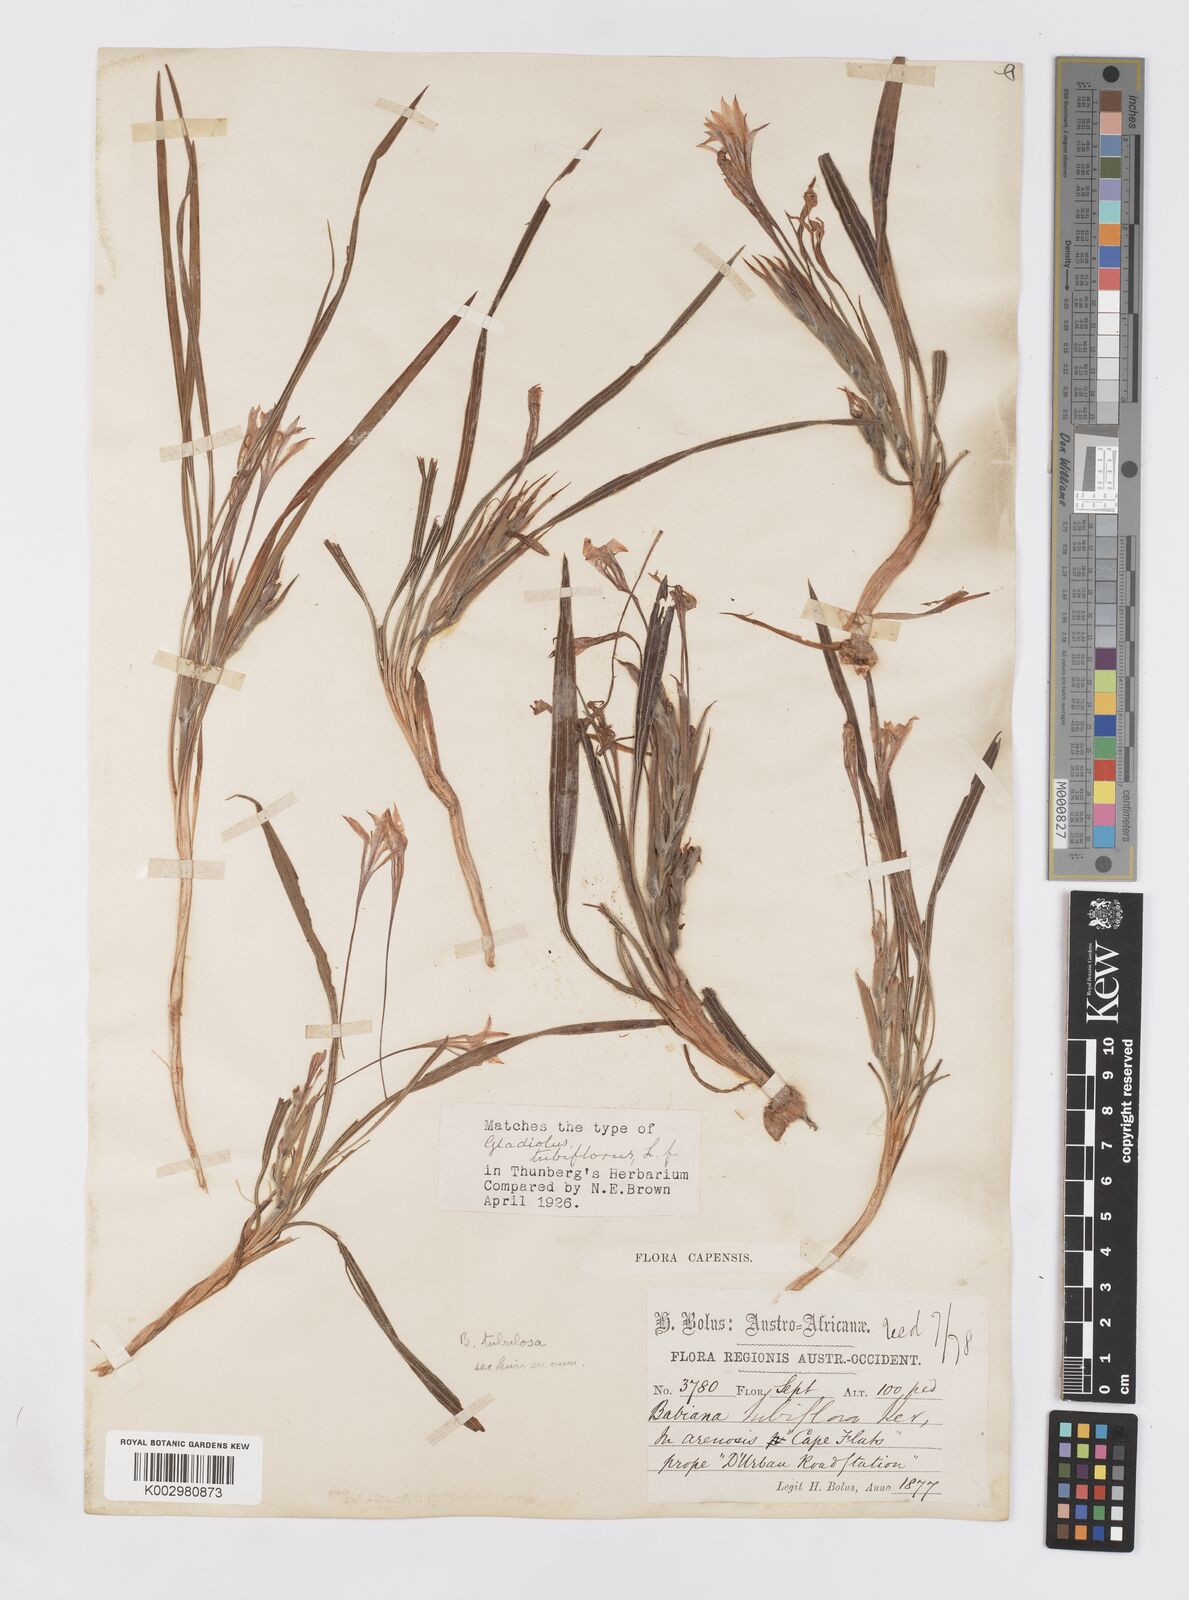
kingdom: Plantae
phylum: Tracheophyta
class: Liliopsida
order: Asparagales
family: Iridaceae
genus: Babiana
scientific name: Babiana tubulosa
